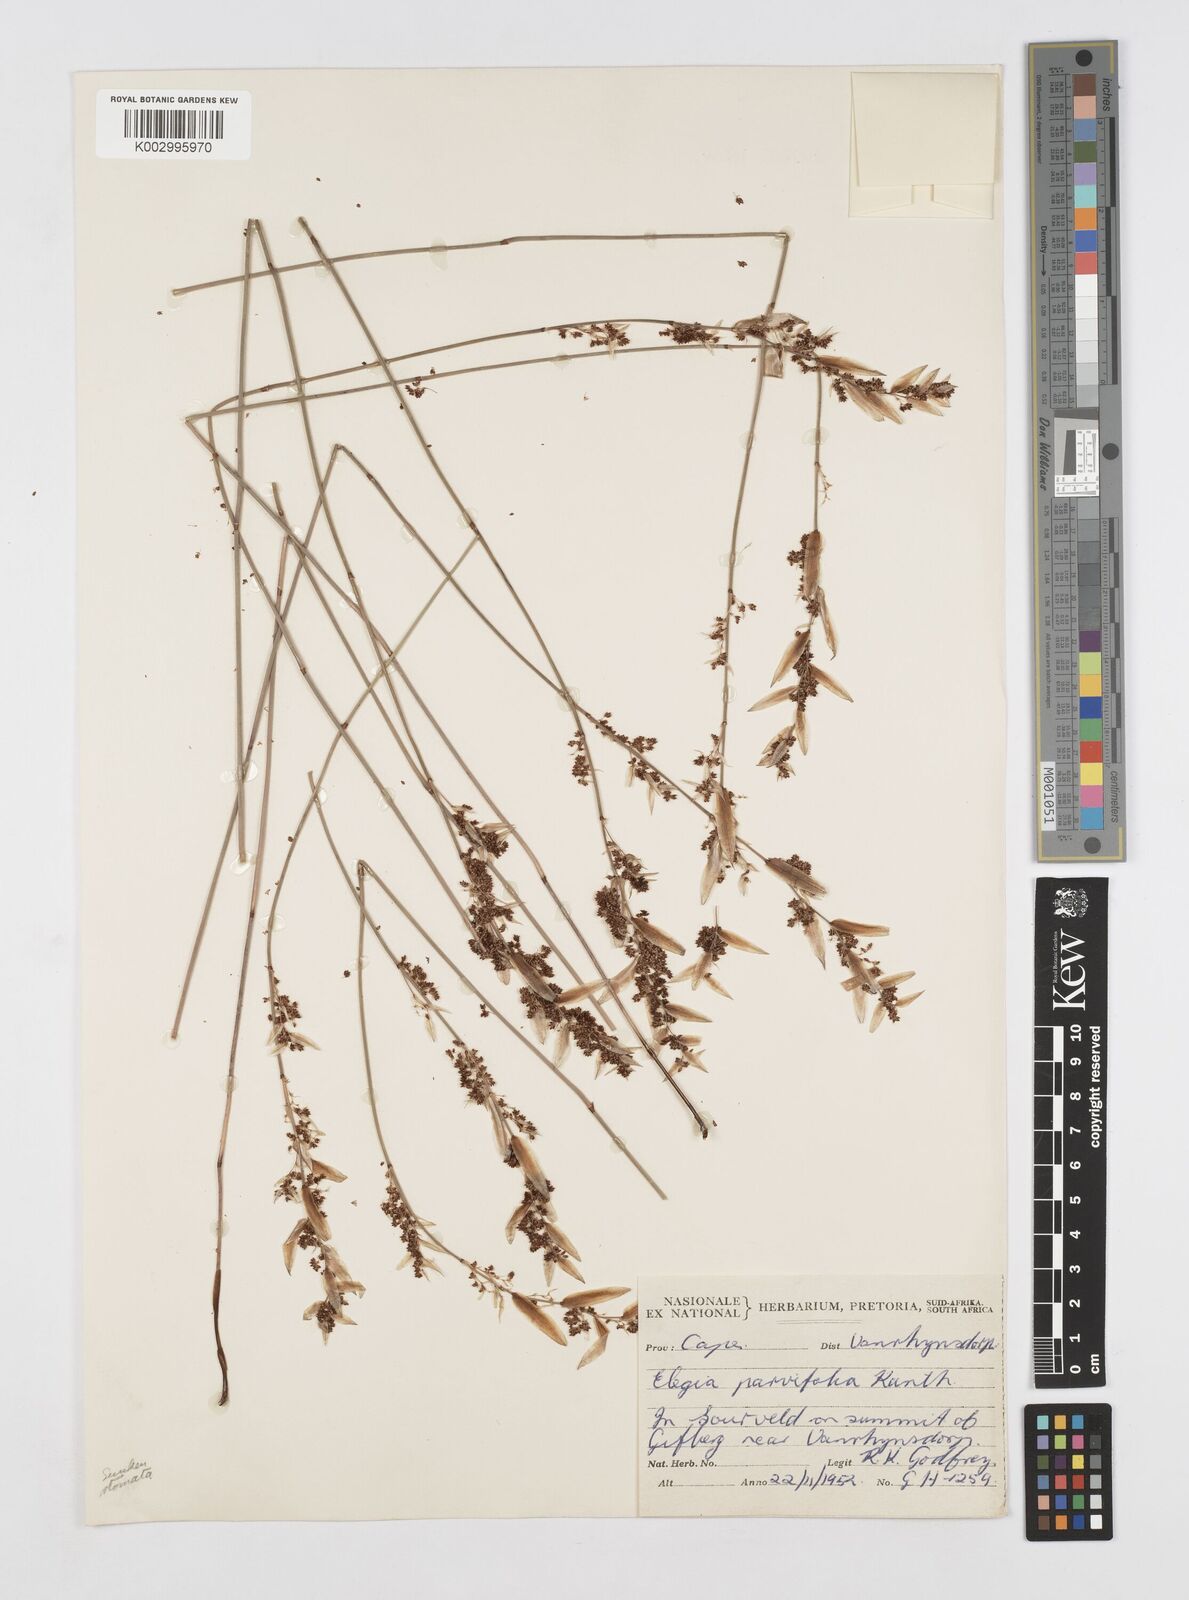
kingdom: Plantae
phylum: Tracheophyta
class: Liliopsida
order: Poales
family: Restionaceae
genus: Cannomois
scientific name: Cannomois
